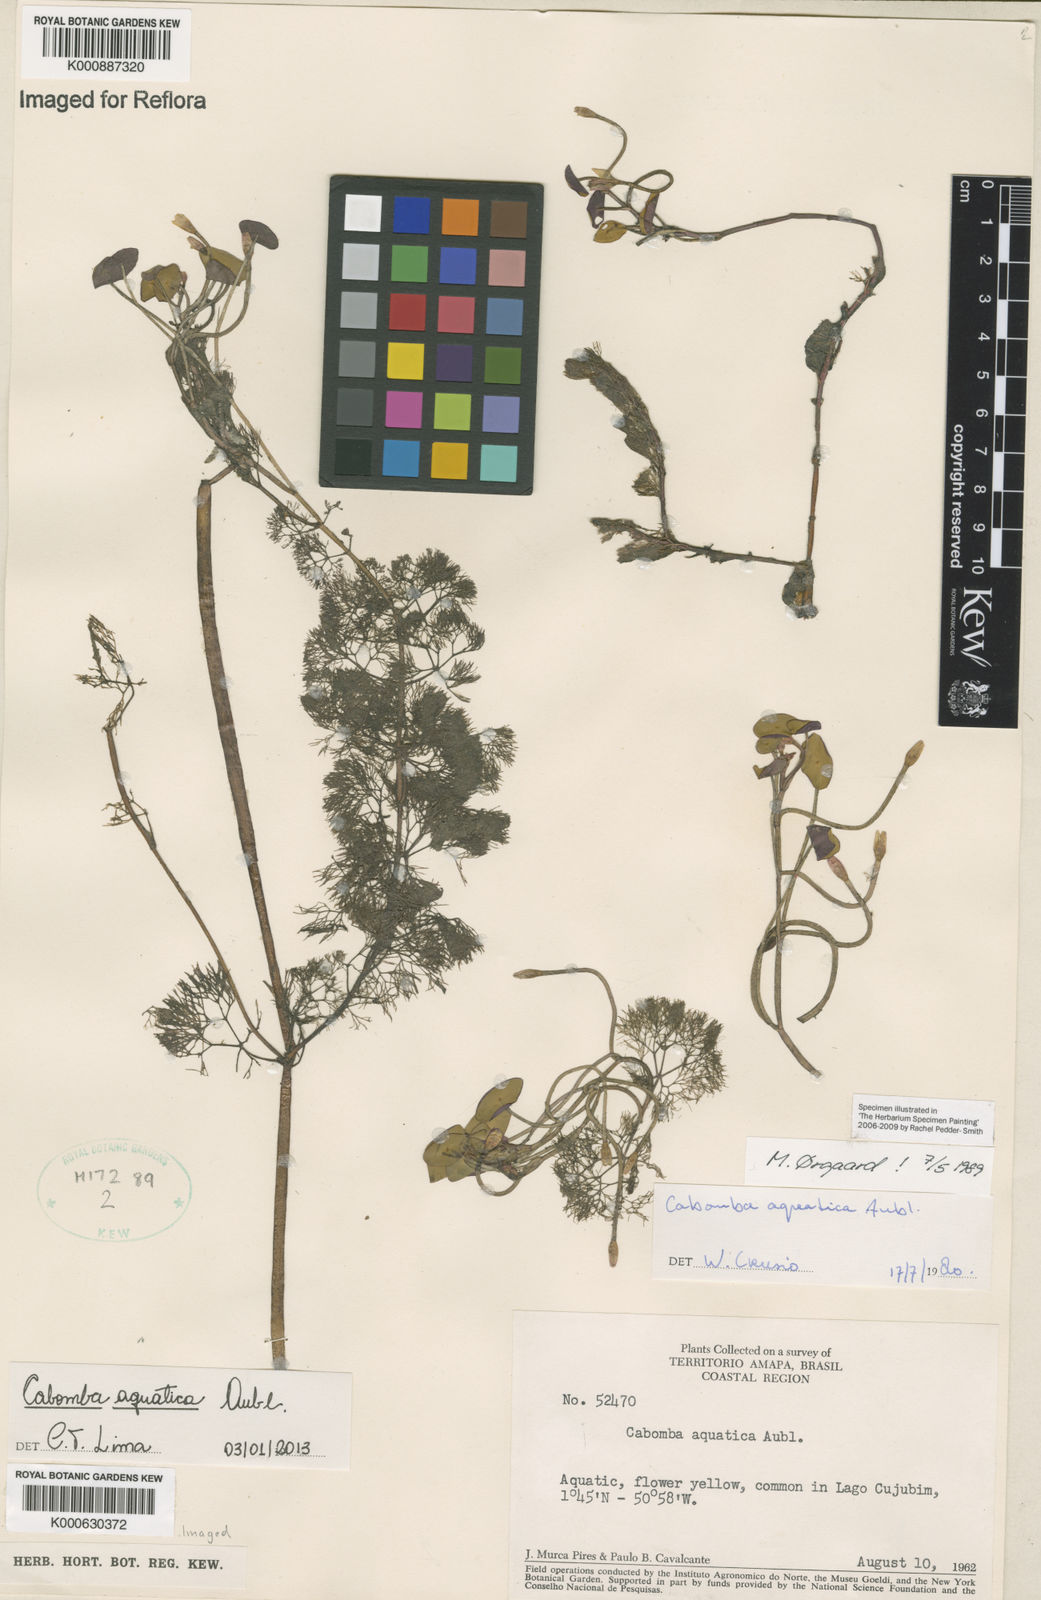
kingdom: Plantae
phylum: Tracheophyta
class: Magnoliopsida
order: Nymphaeales
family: Cabombaceae
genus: Cabomba
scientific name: Cabomba aquatica
